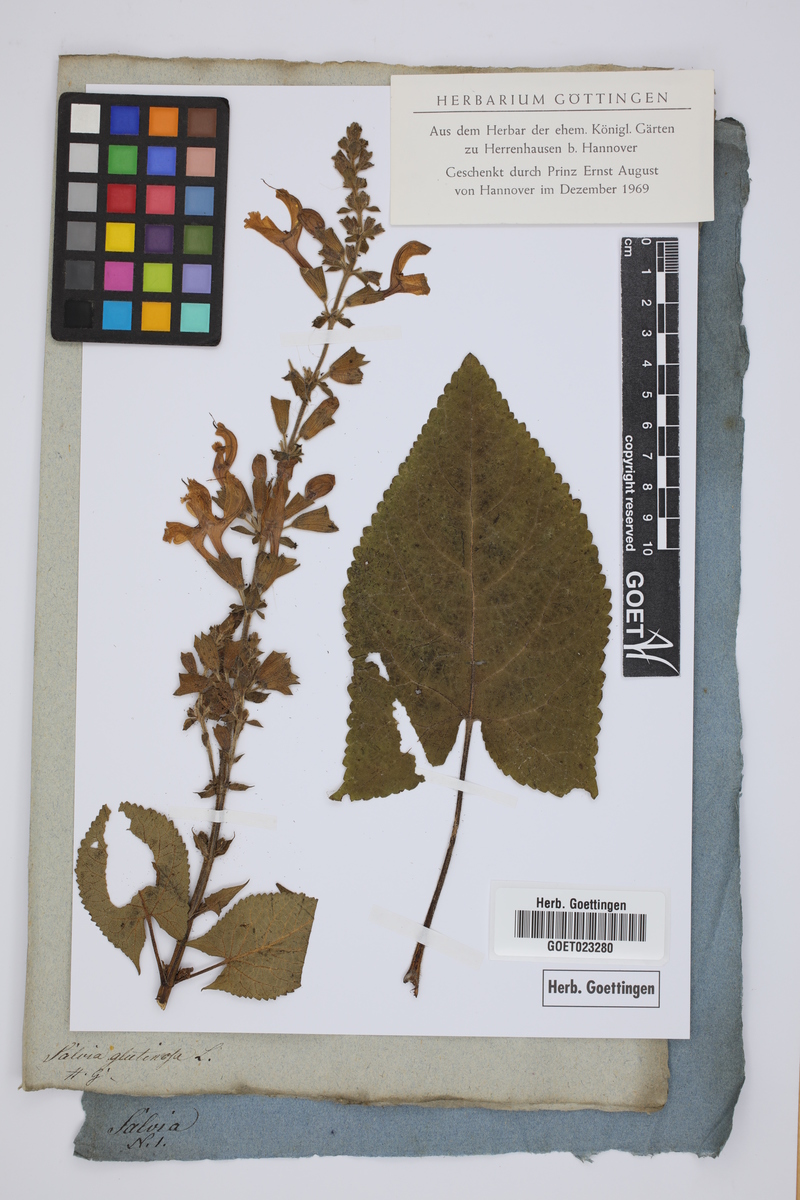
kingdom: Plantae
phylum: Tracheophyta
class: Magnoliopsida
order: Lamiales
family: Lamiaceae
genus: Salvia
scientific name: Salvia glutinosa
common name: Sticky clary
